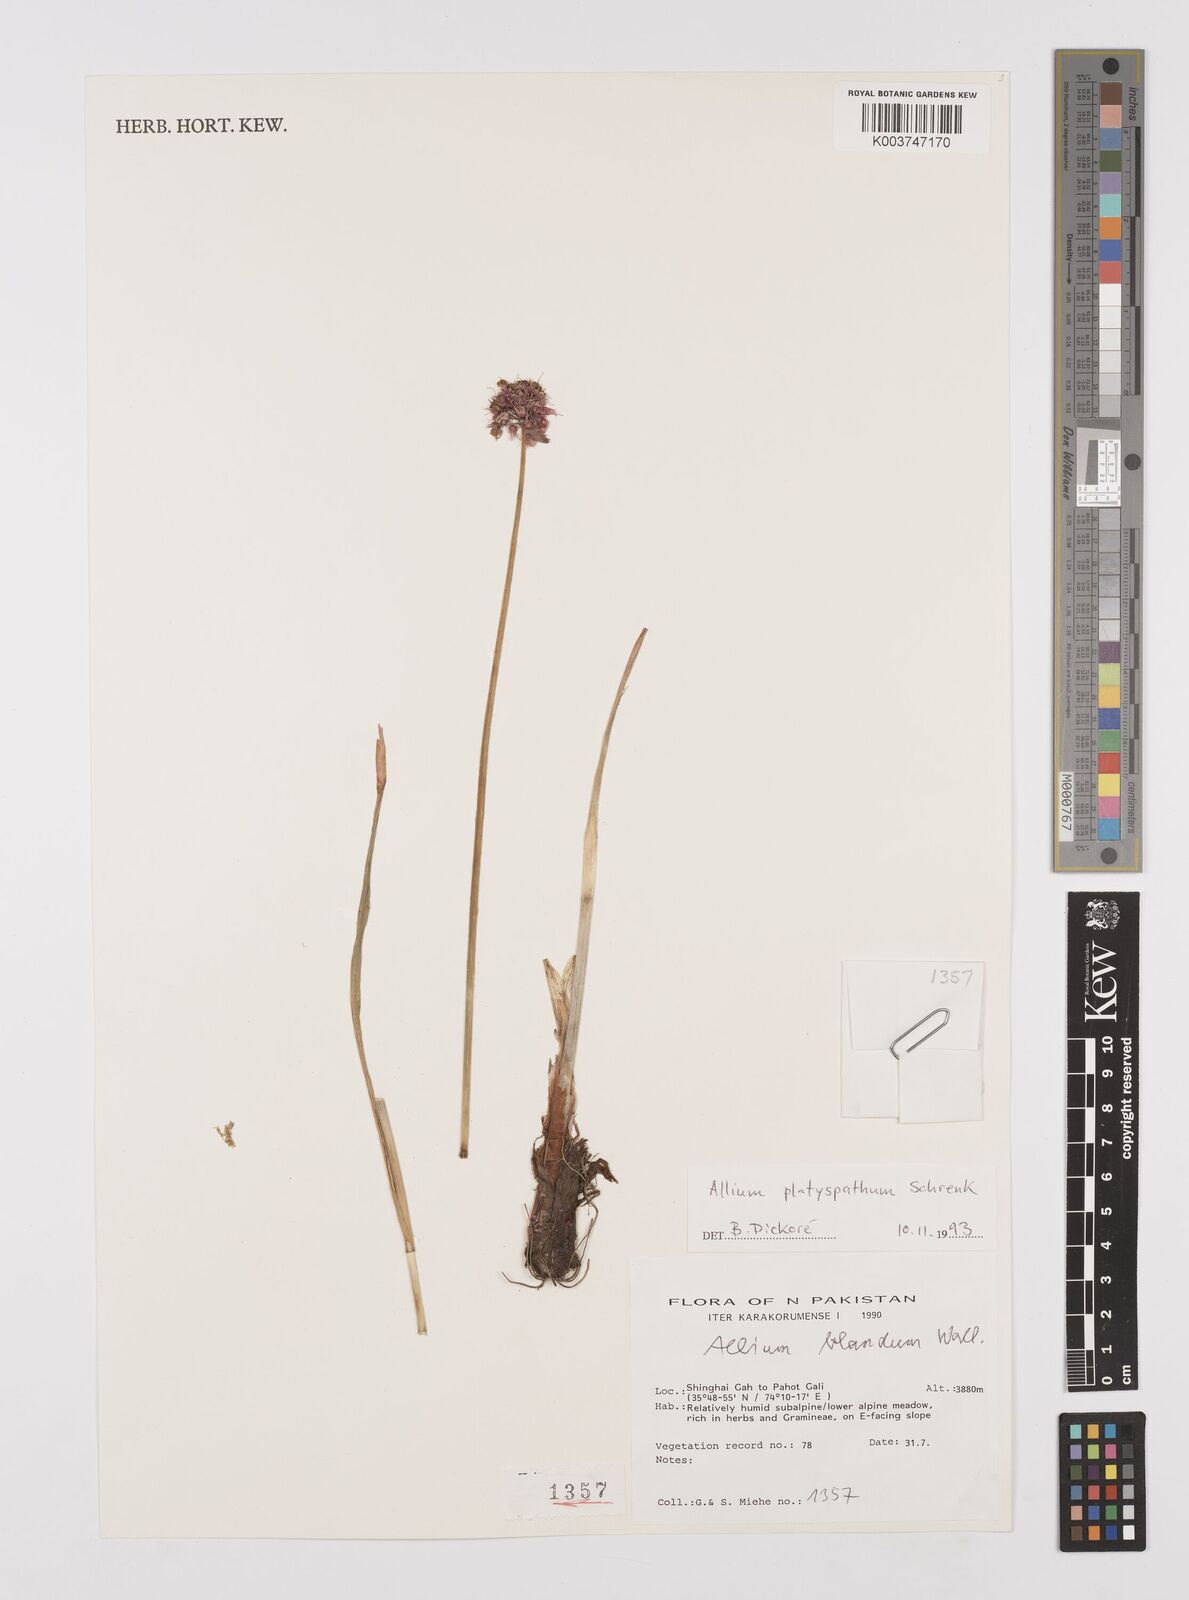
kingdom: Plantae
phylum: Tracheophyta
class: Liliopsida
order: Asparagales
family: Amaryllidaceae
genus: Allium
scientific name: Allium platyspathum
